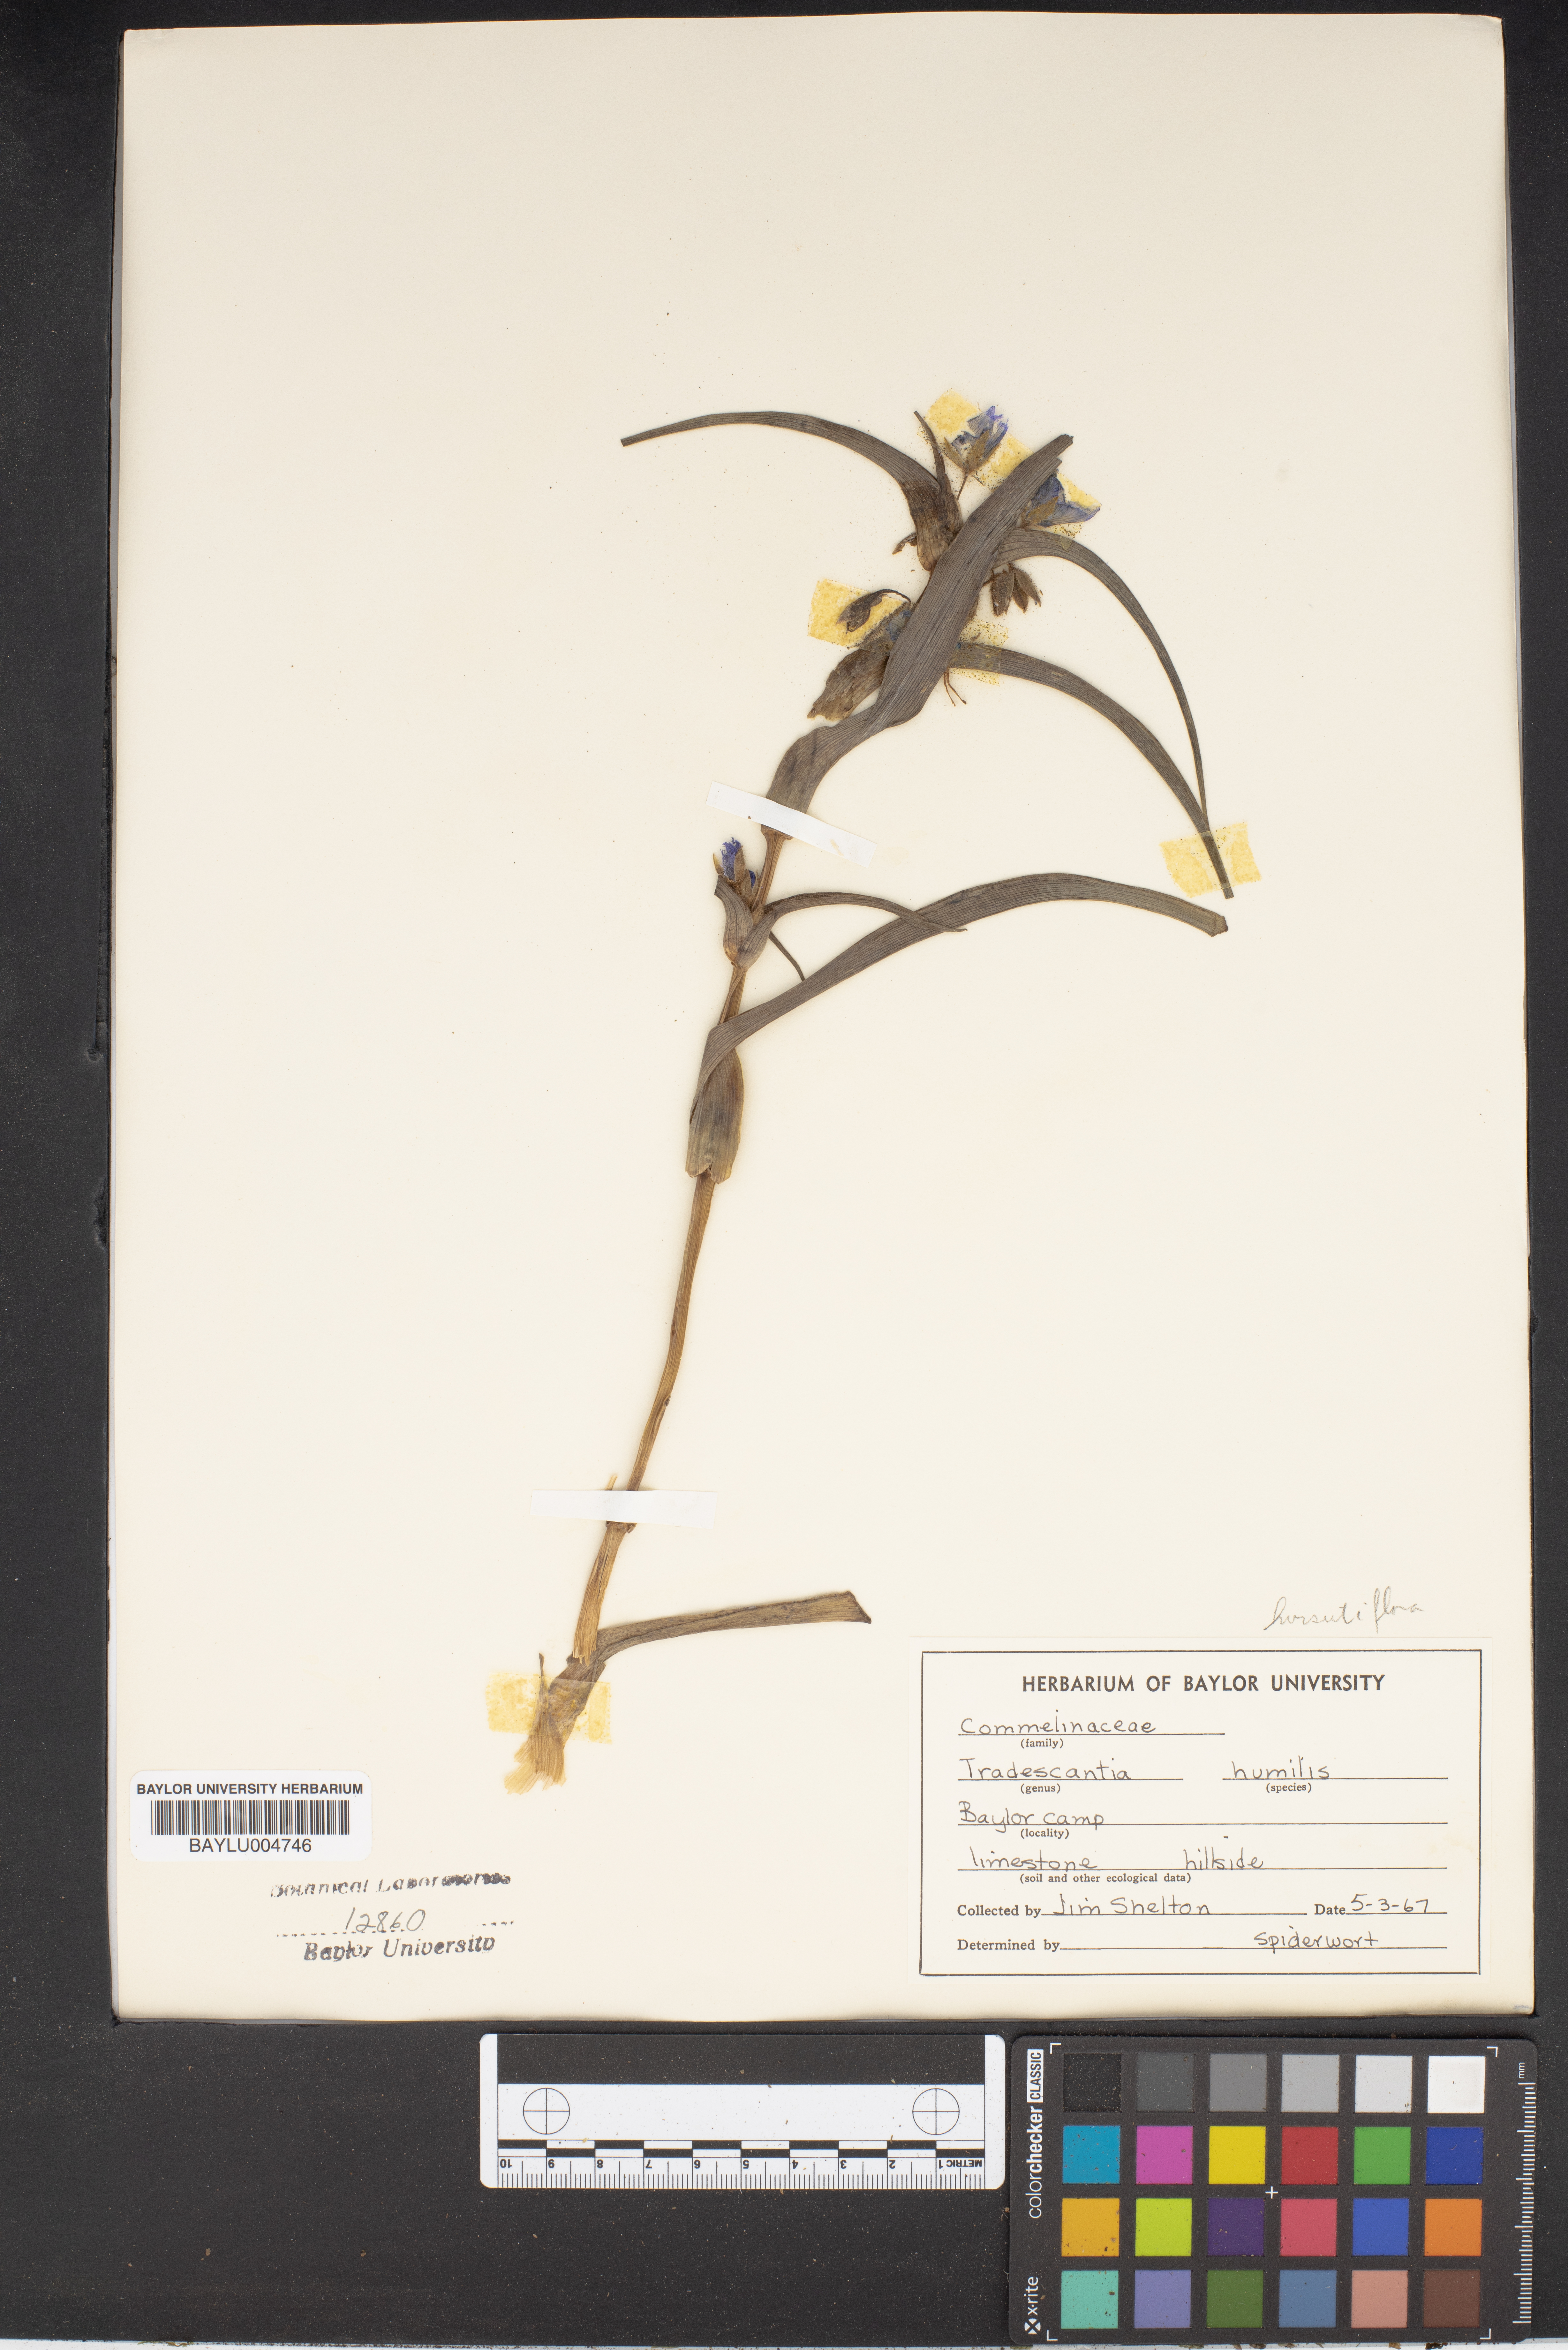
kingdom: Plantae
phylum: Tracheophyta
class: Liliopsida
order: Commelinales
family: Commelinaceae
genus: Tradescantia
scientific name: Tradescantia humilis
